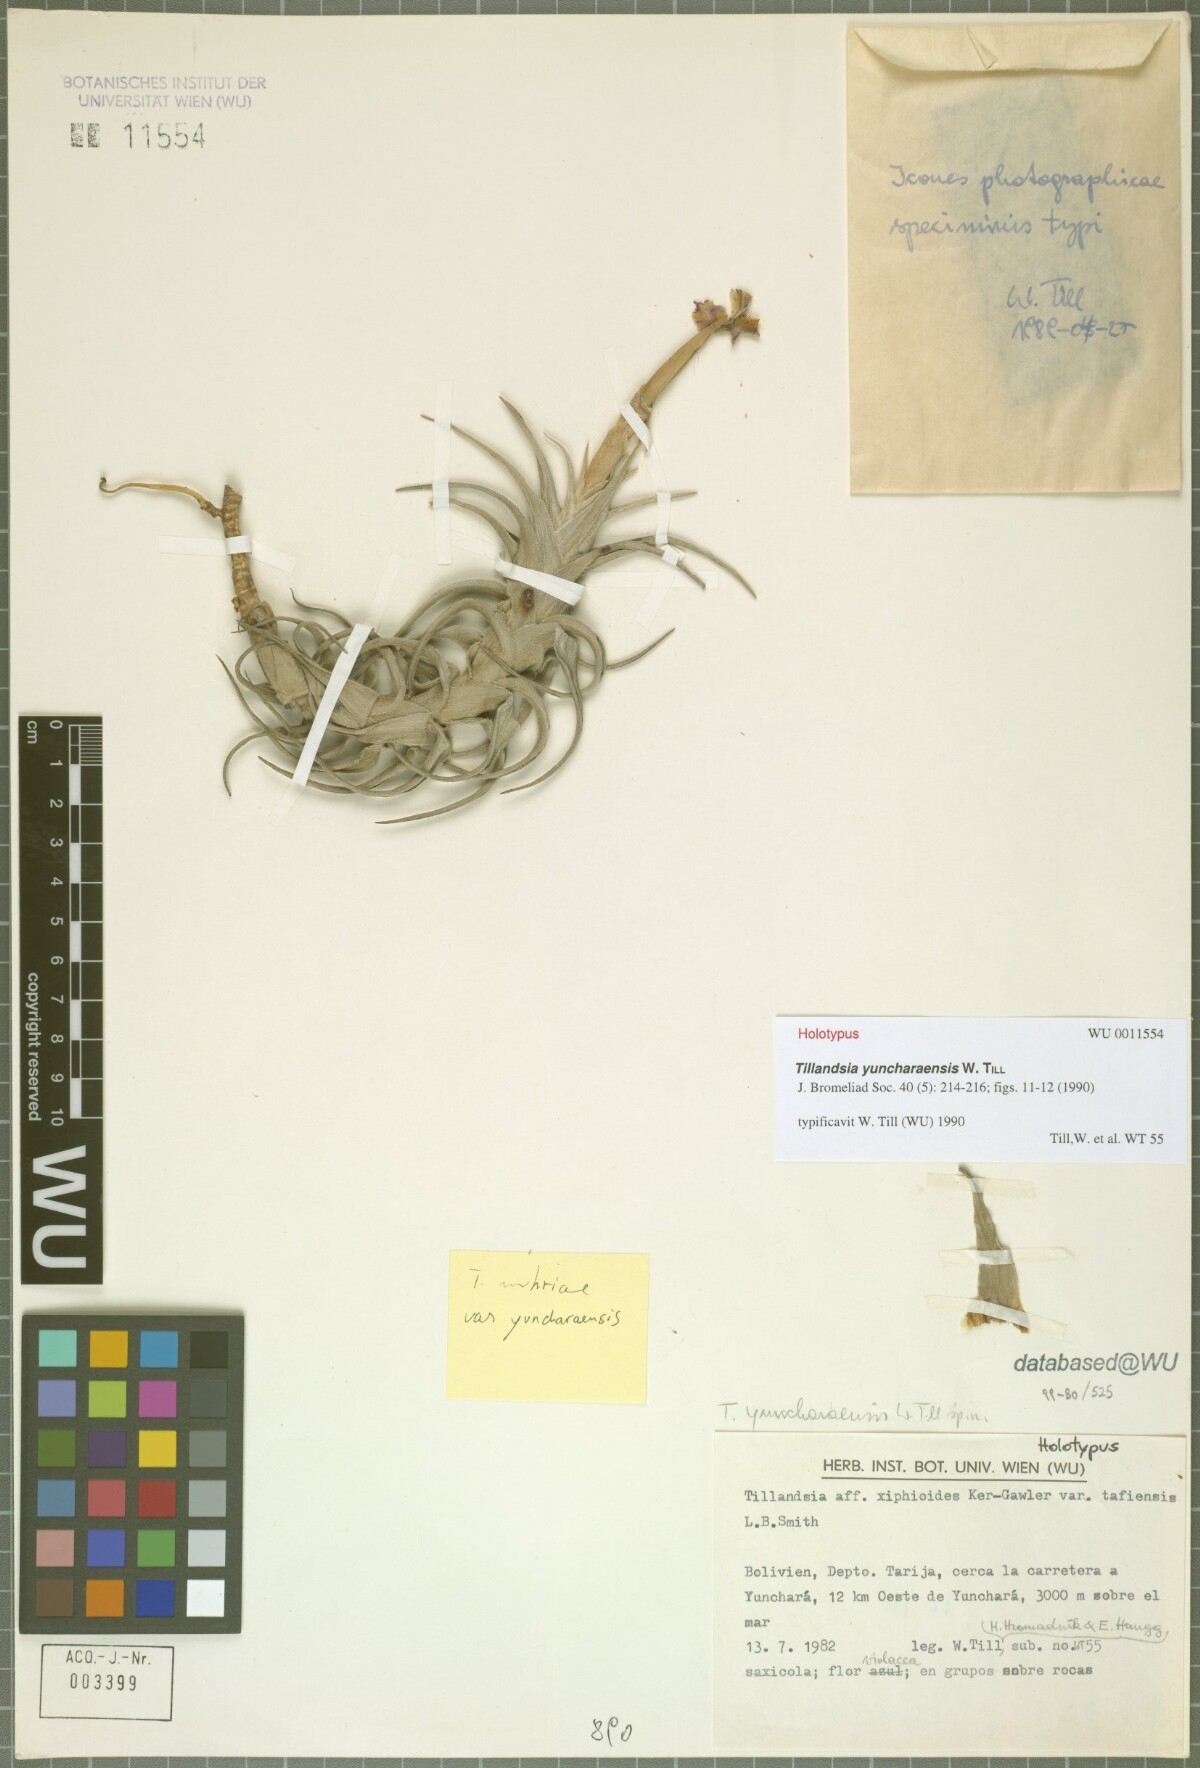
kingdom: Plantae
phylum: Tracheophyta
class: Liliopsida
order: Poales
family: Bromeliaceae
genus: Tillandsia
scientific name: Tillandsia yuncharaensis
